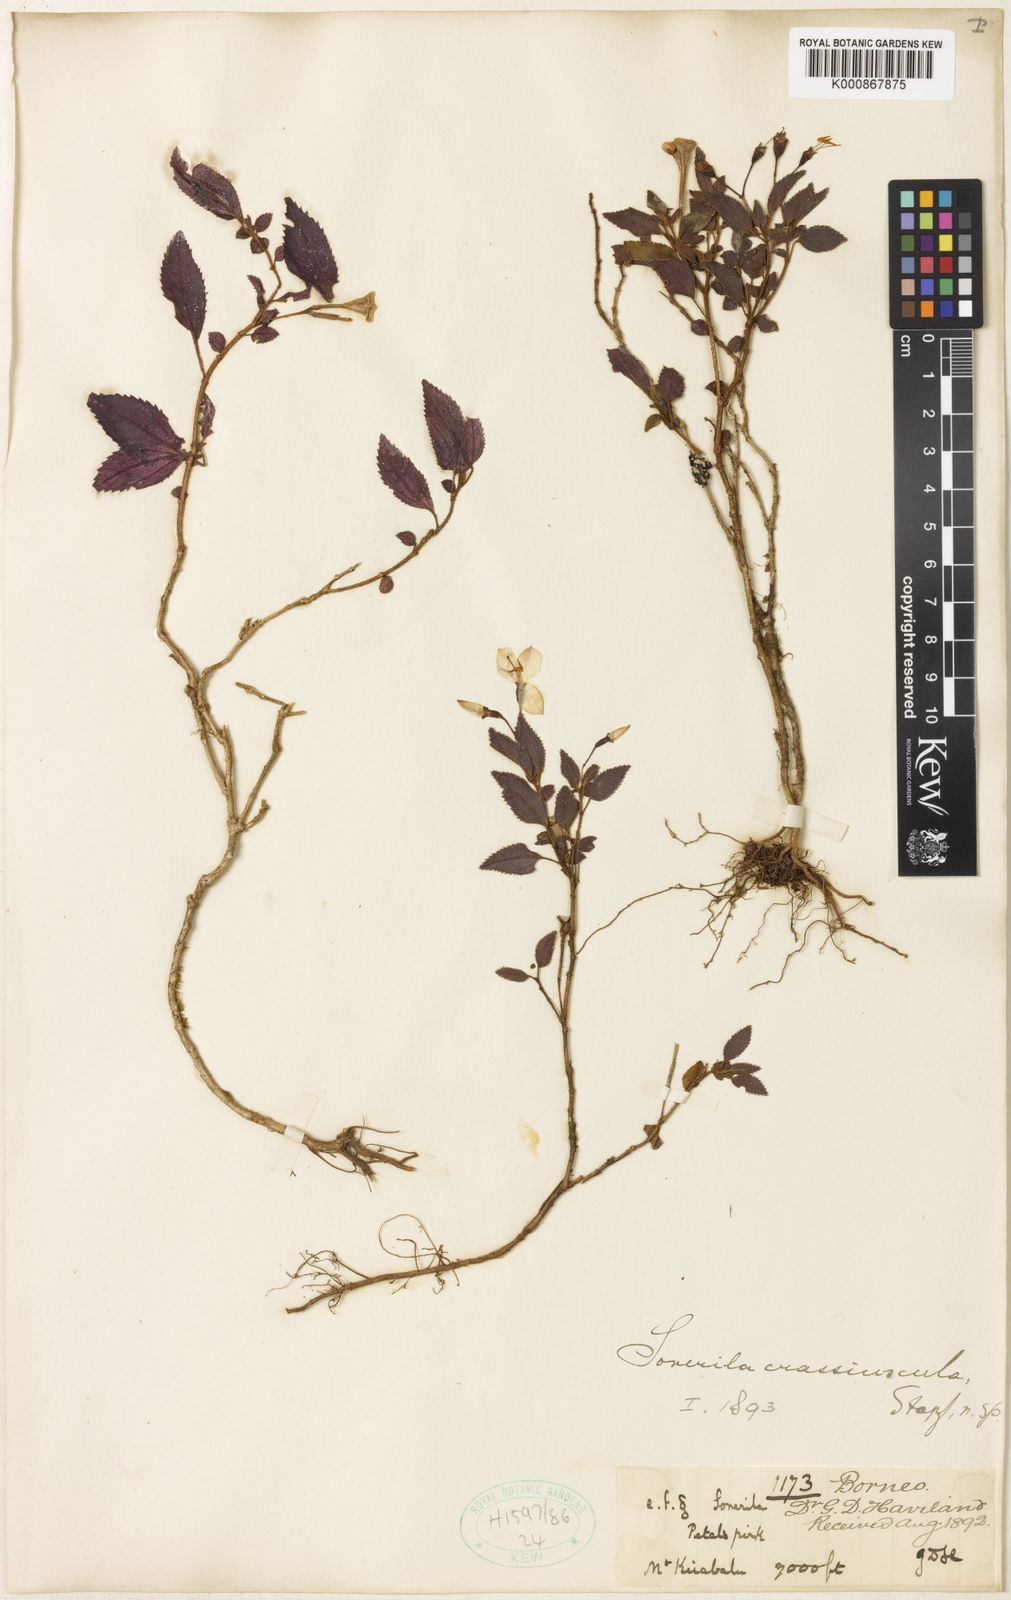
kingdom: Plantae
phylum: Tracheophyta
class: Magnoliopsida
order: Myrtales
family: Melastomataceae
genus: Sonerila
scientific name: Sonerila crassiuscula
